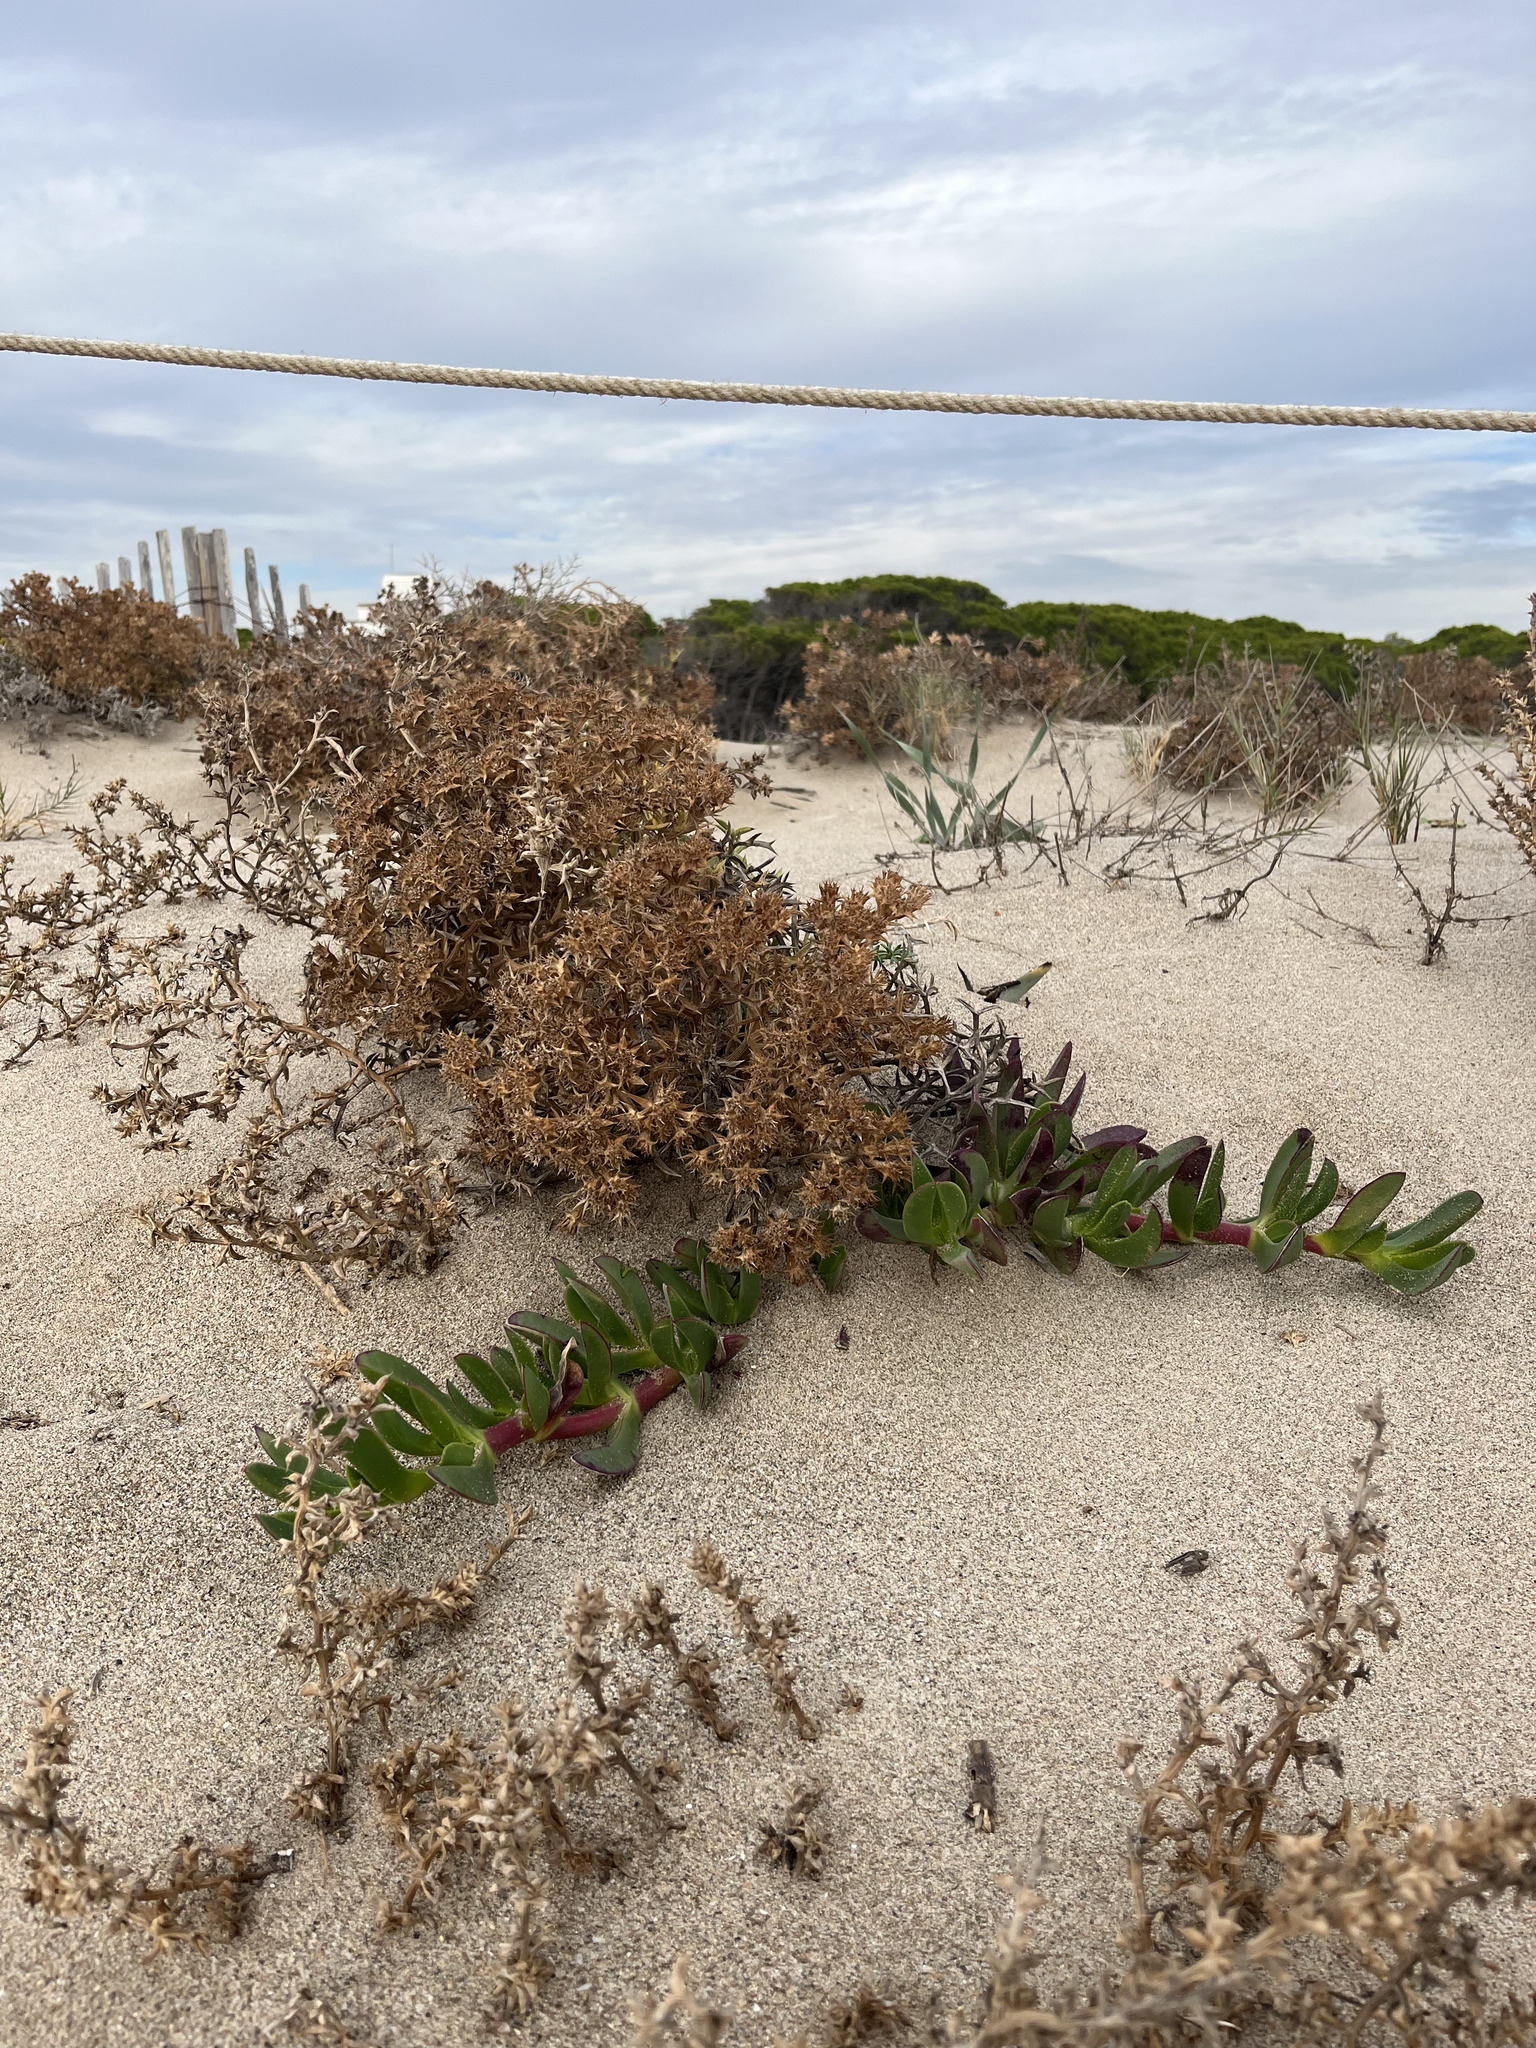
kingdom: Plantae
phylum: Tracheophyta
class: Magnoliopsida
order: Caryophyllales
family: Aizoaceae
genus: Carpobrotus
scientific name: Carpobrotus edulis
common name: Hottentot-fig
